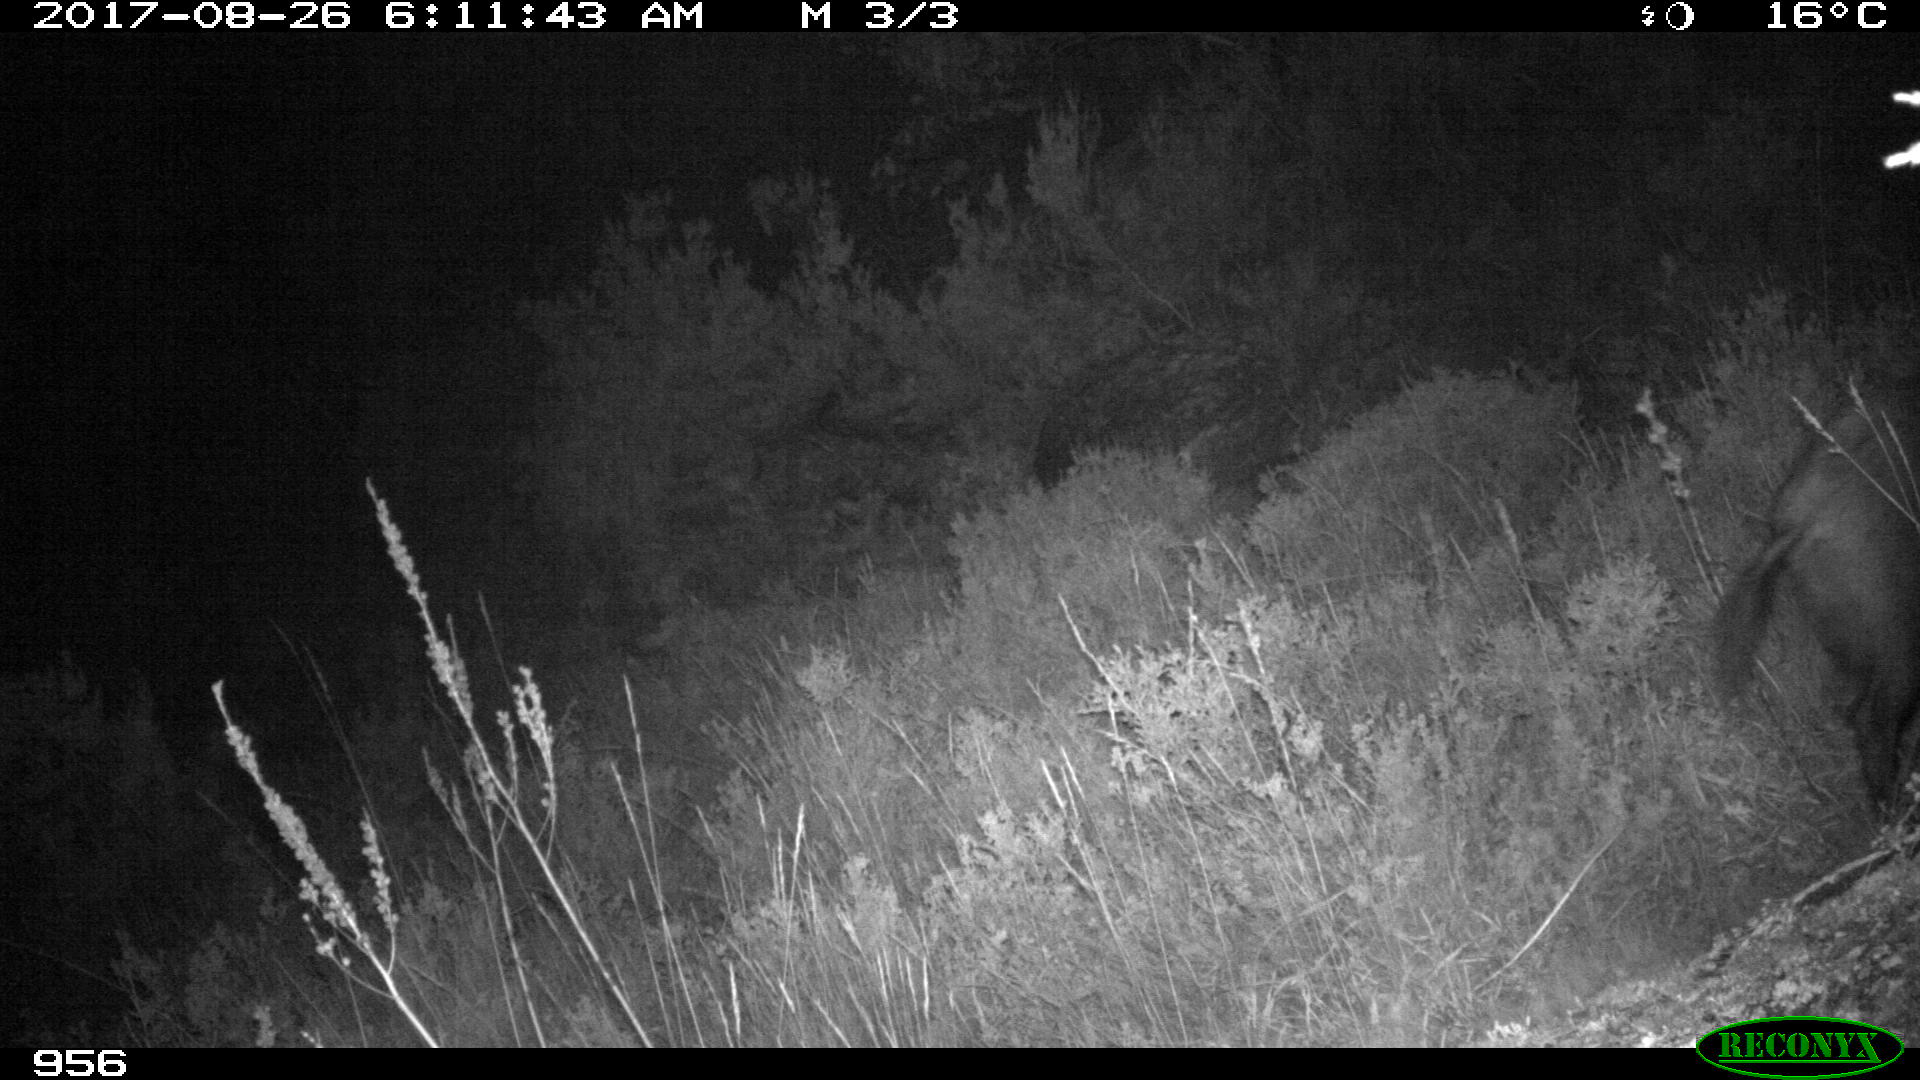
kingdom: Animalia
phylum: Chordata
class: Mammalia
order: Artiodactyla
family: Suidae
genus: Sus
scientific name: Sus scrofa
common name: Wild boar
